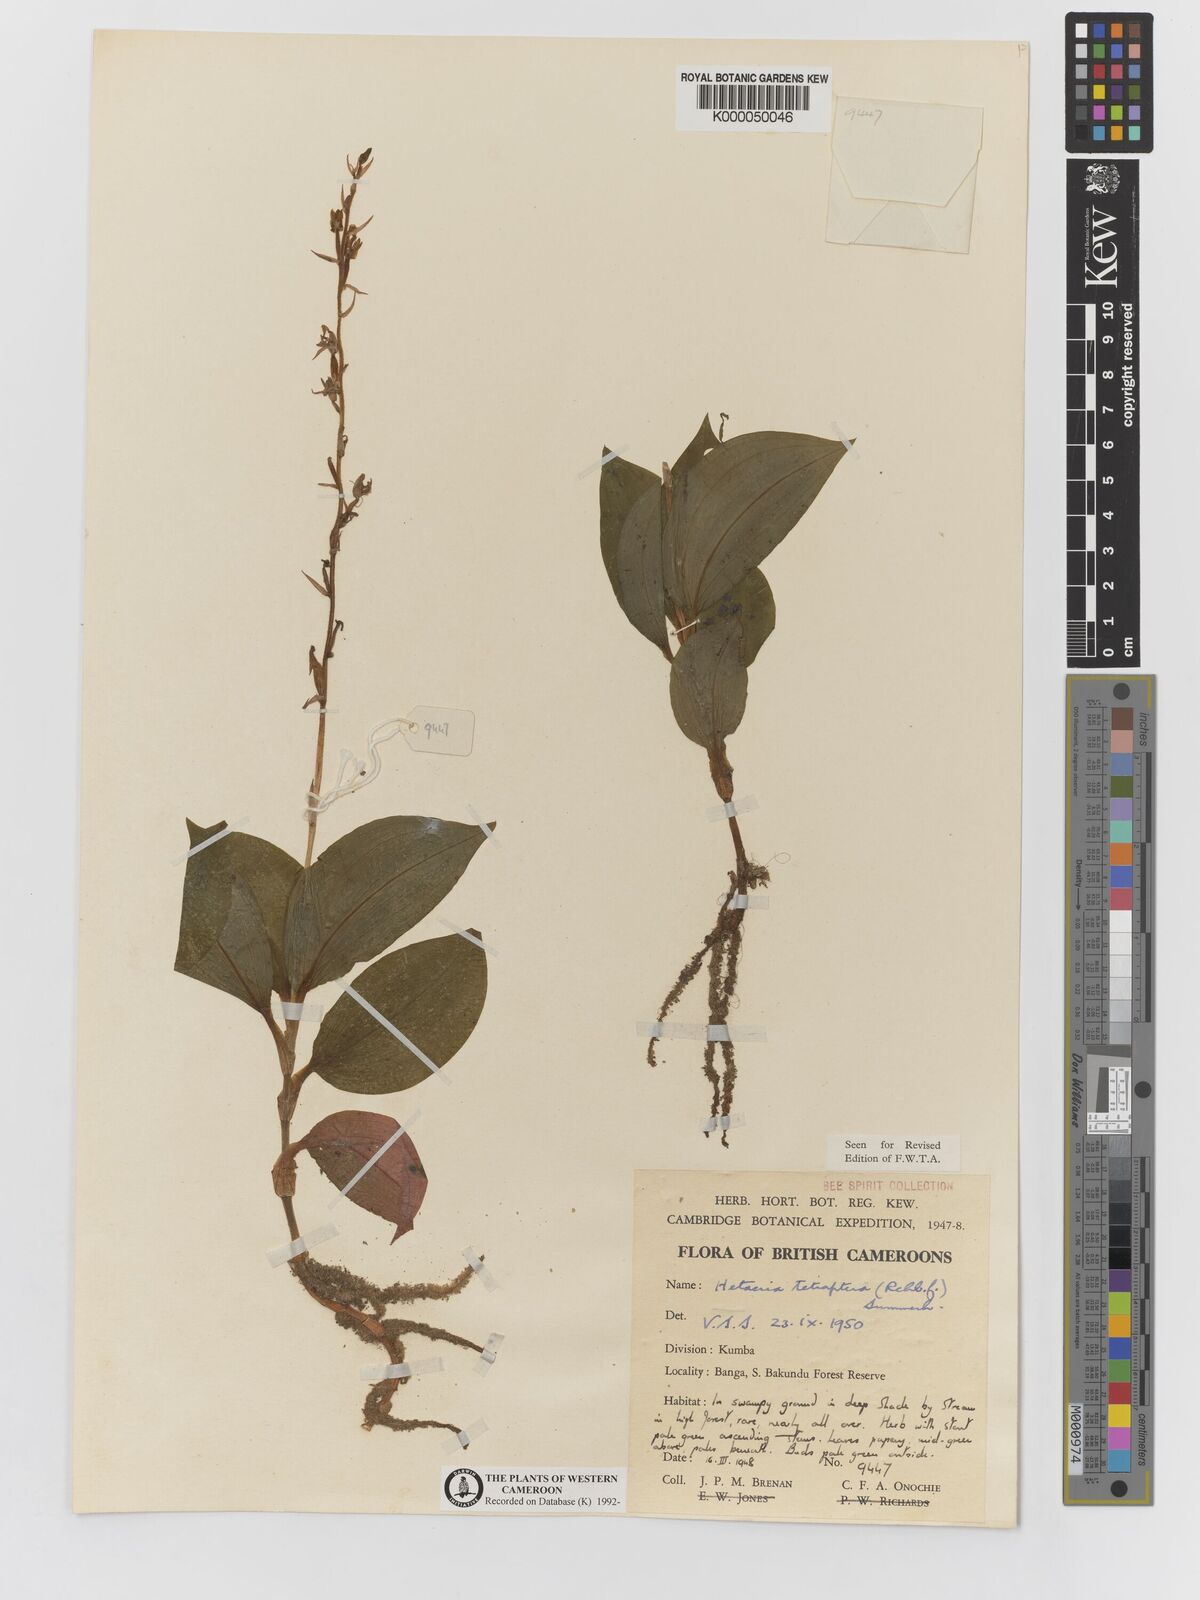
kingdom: Plantae
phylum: Tracheophyta
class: Liliopsida
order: Asparagales
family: Orchidaceae
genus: Hetaeria
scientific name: Hetaeria tetraptera
